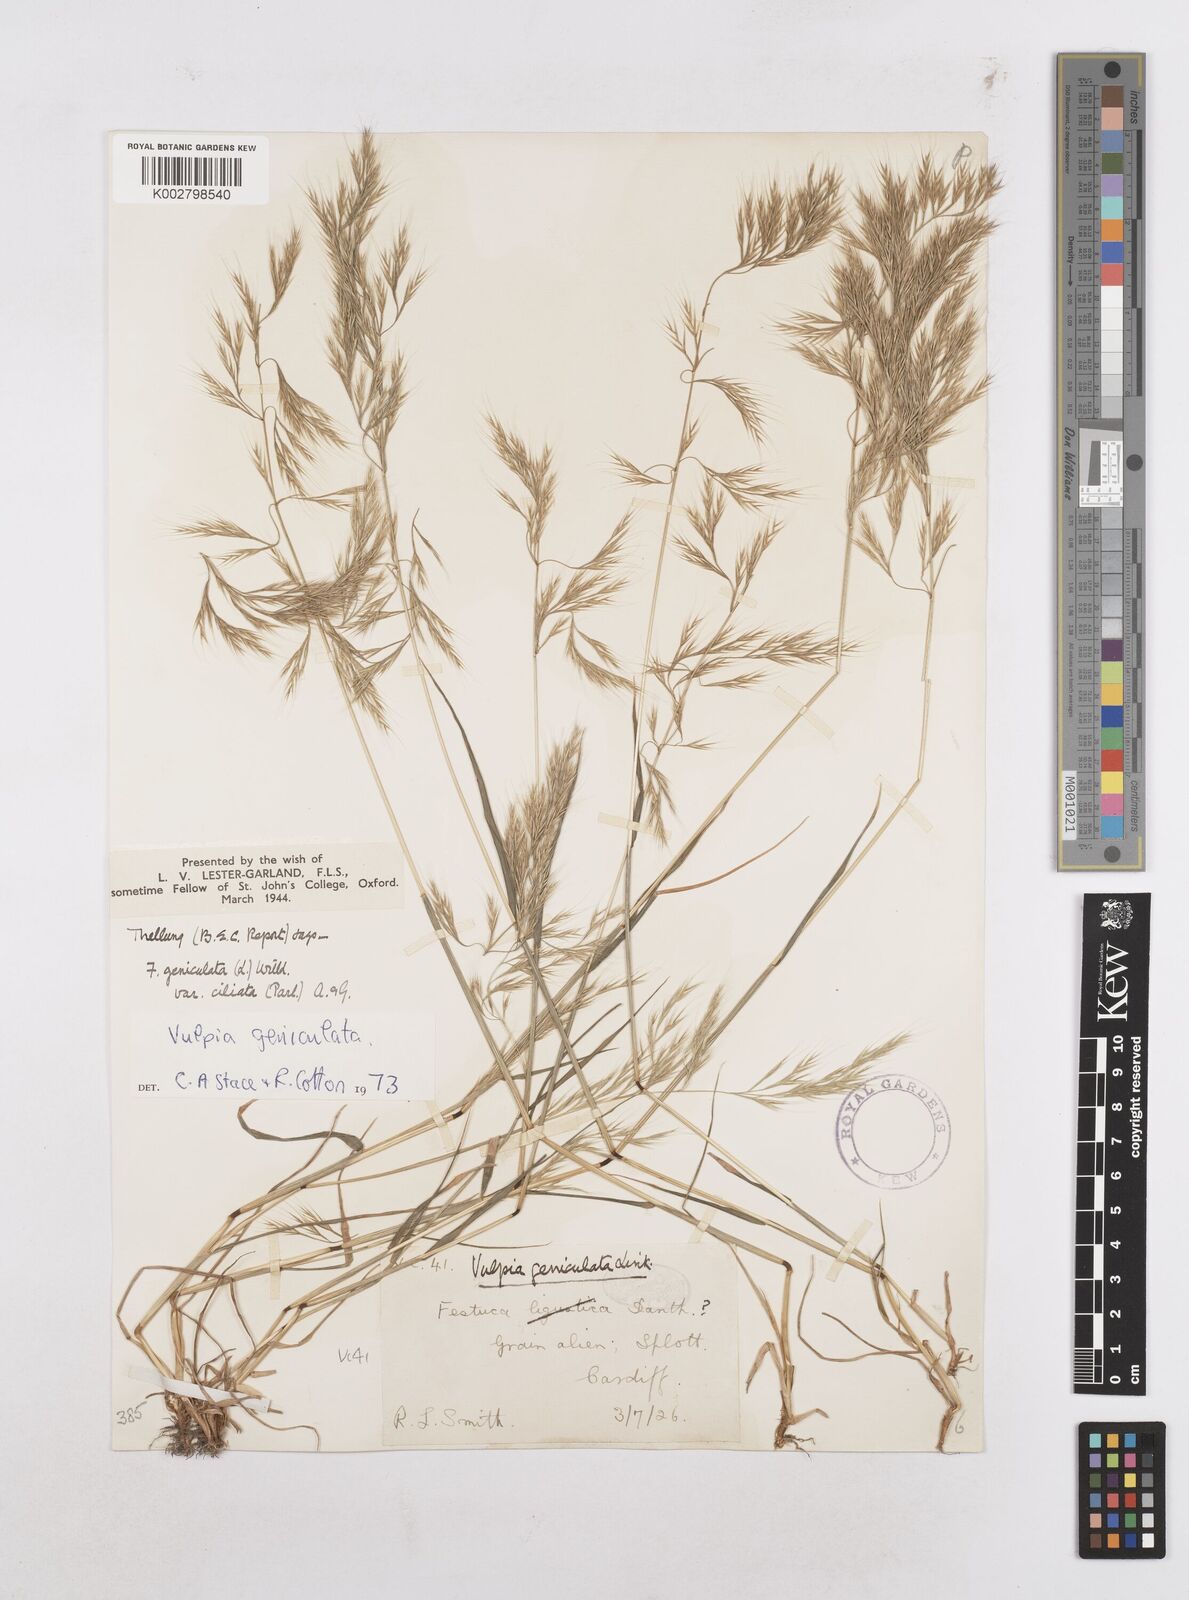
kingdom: Plantae
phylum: Tracheophyta
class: Liliopsida
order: Poales
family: Poaceae
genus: Festuca
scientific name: Festuca geniculata
